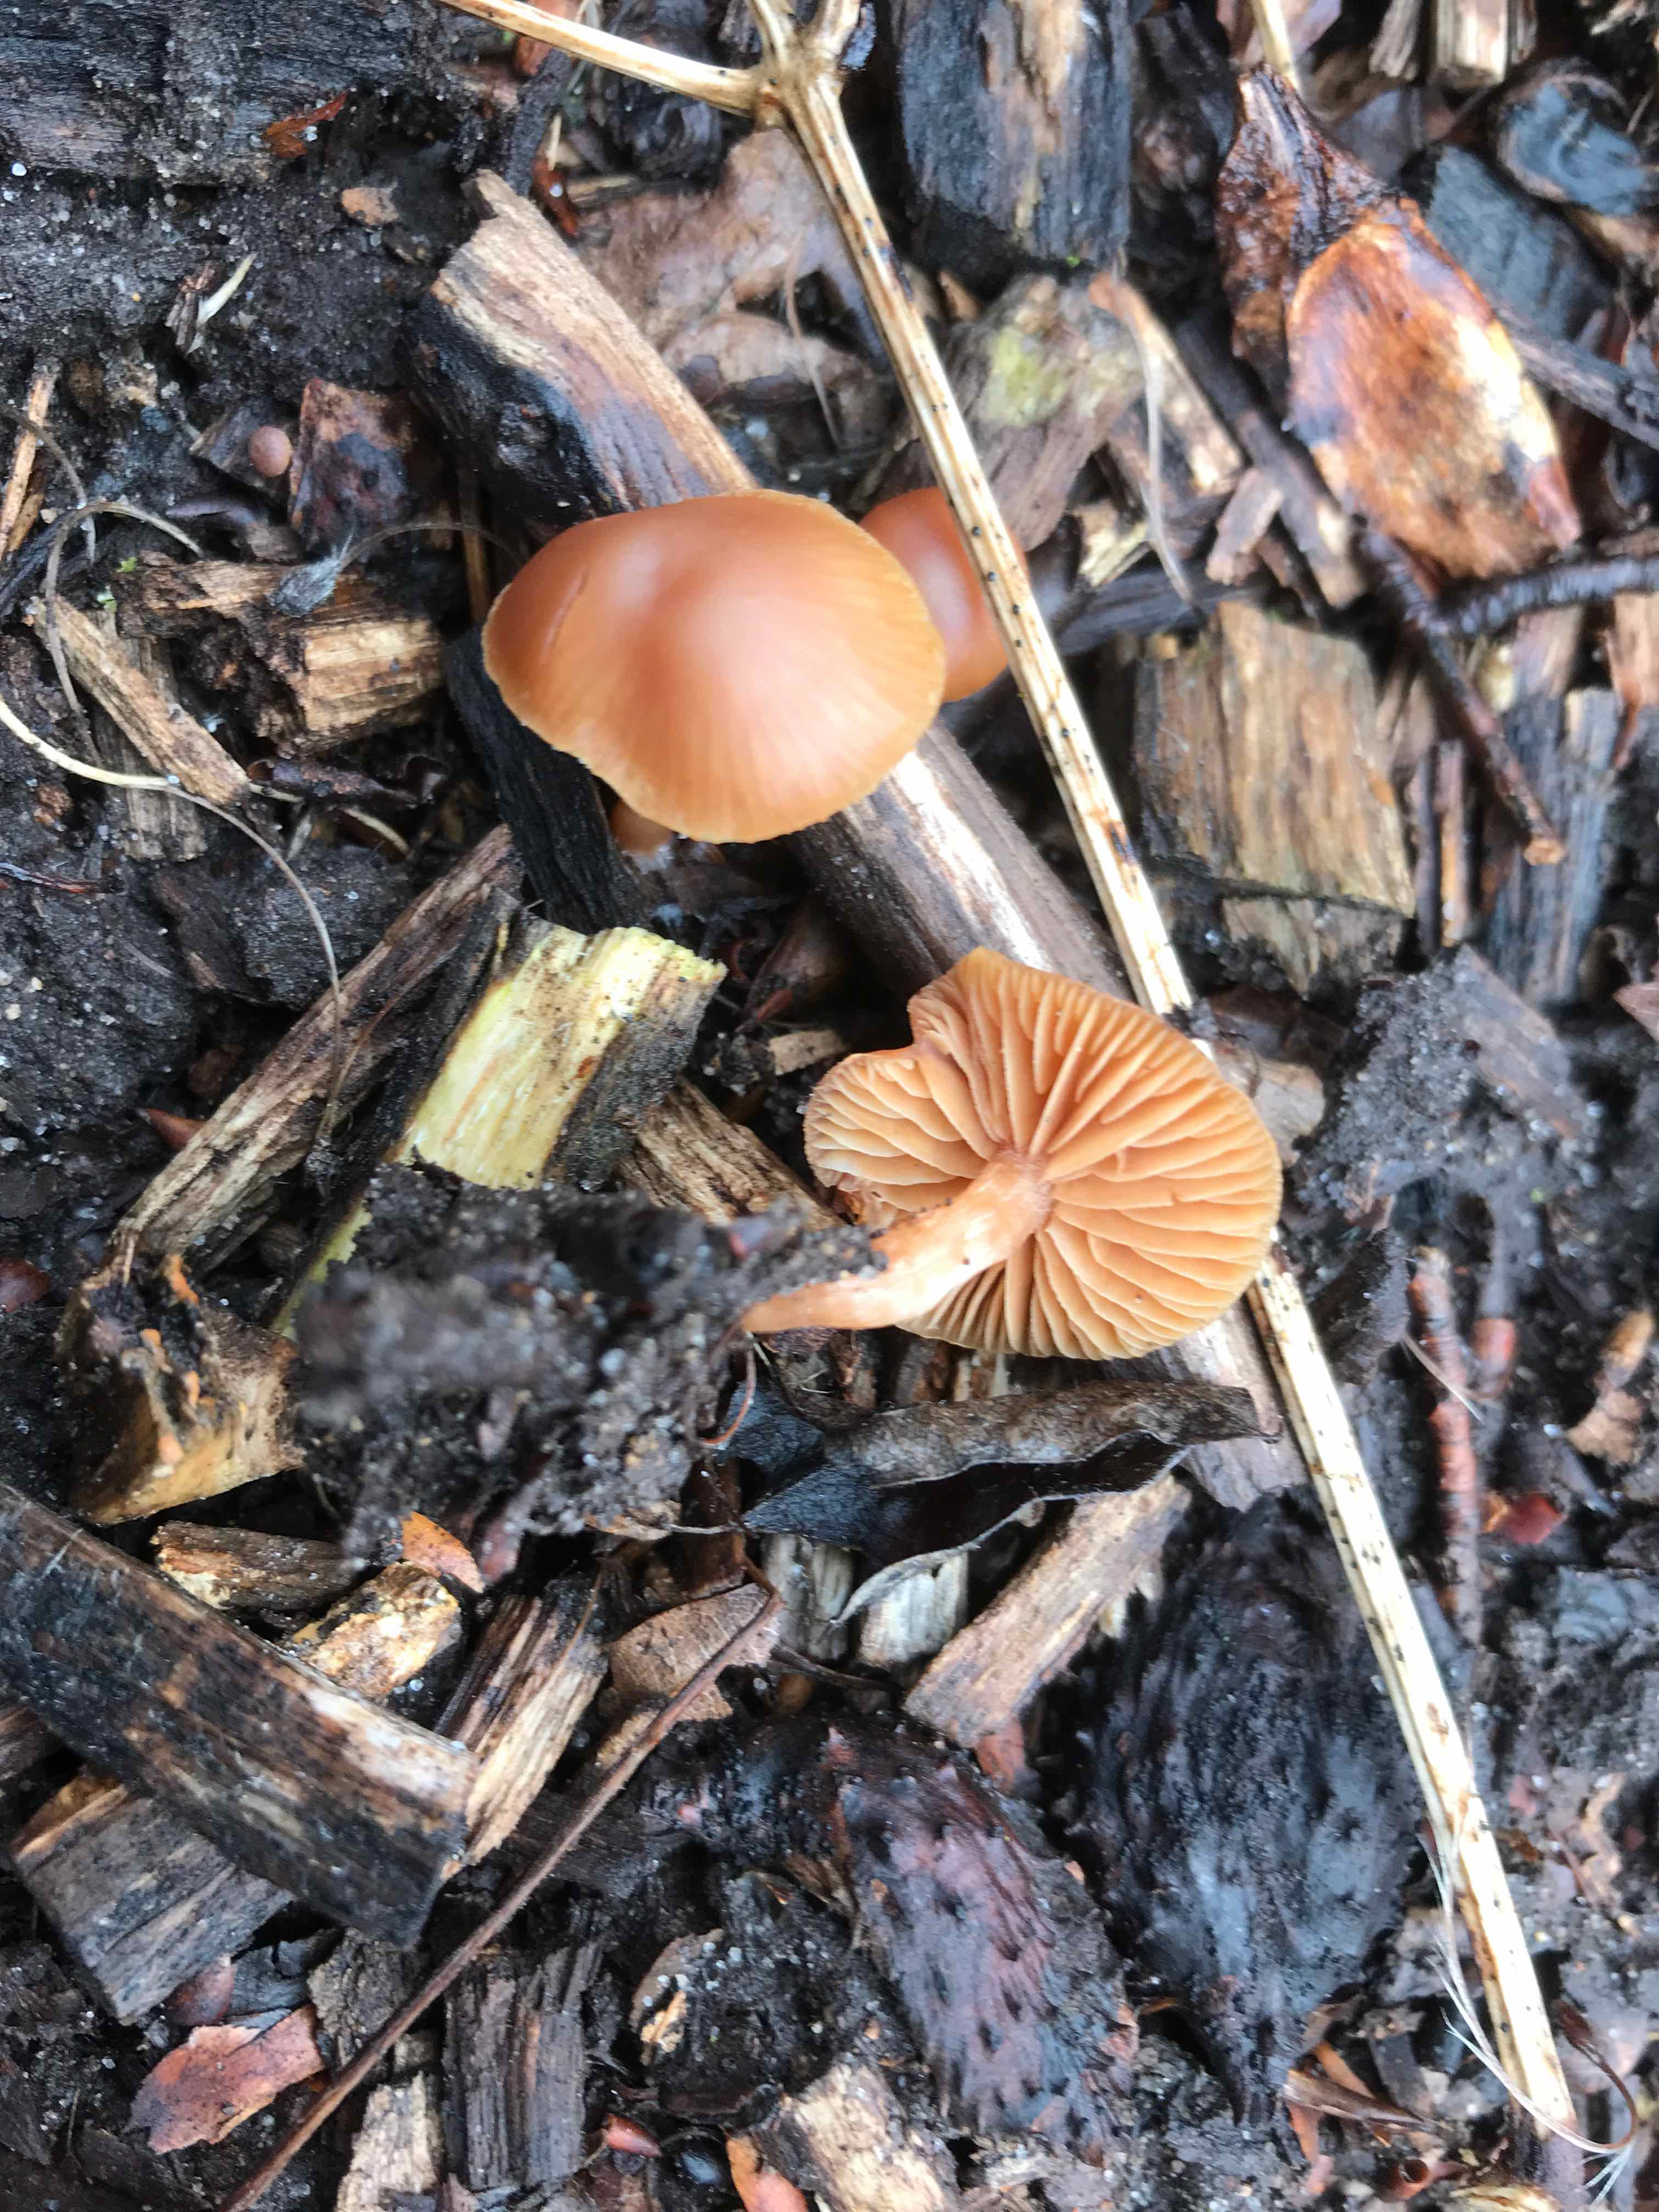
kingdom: Fungi
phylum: Basidiomycota
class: Agaricomycetes
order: Agaricales
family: Tubariaceae
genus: Tubaria
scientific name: Tubaria furfuracea
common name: kliddet fnughat
